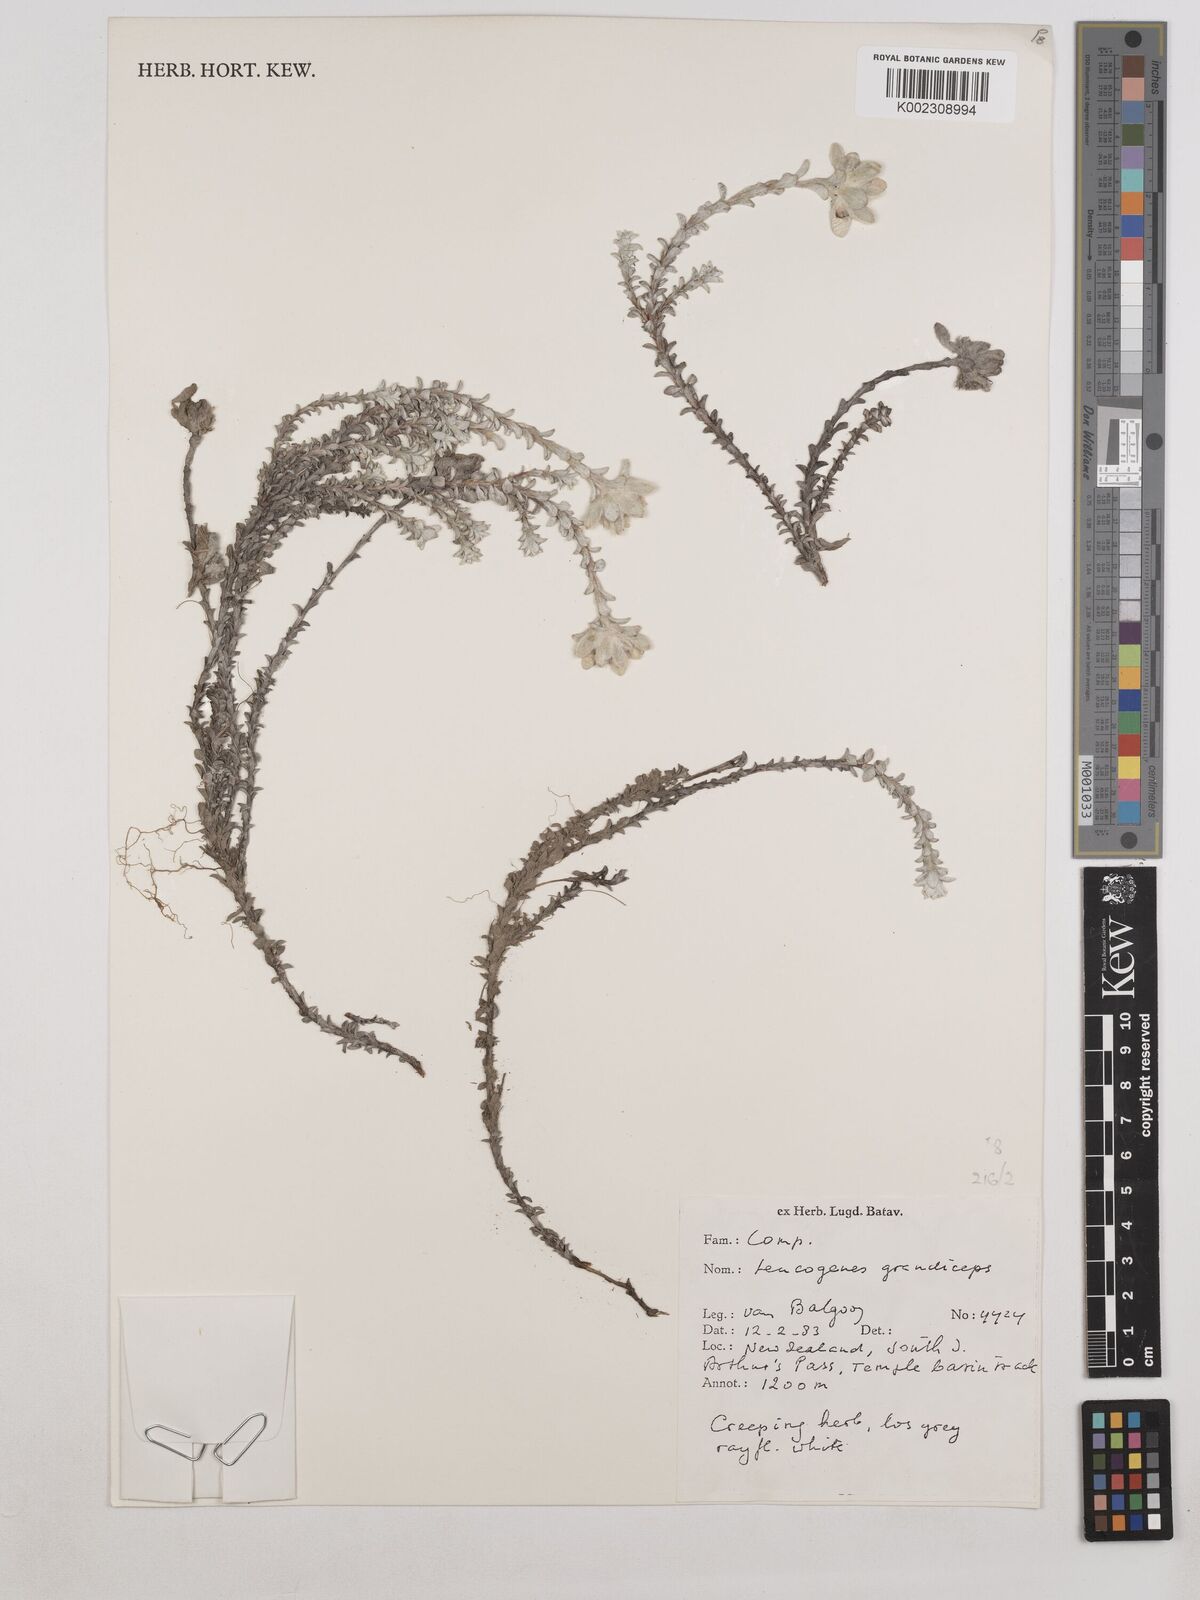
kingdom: Plantae
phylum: Tracheophyta
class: Magnoliopsida
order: Asterales
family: Asteraceae
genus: Leucogenes
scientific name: Leucogenes grandiceps
